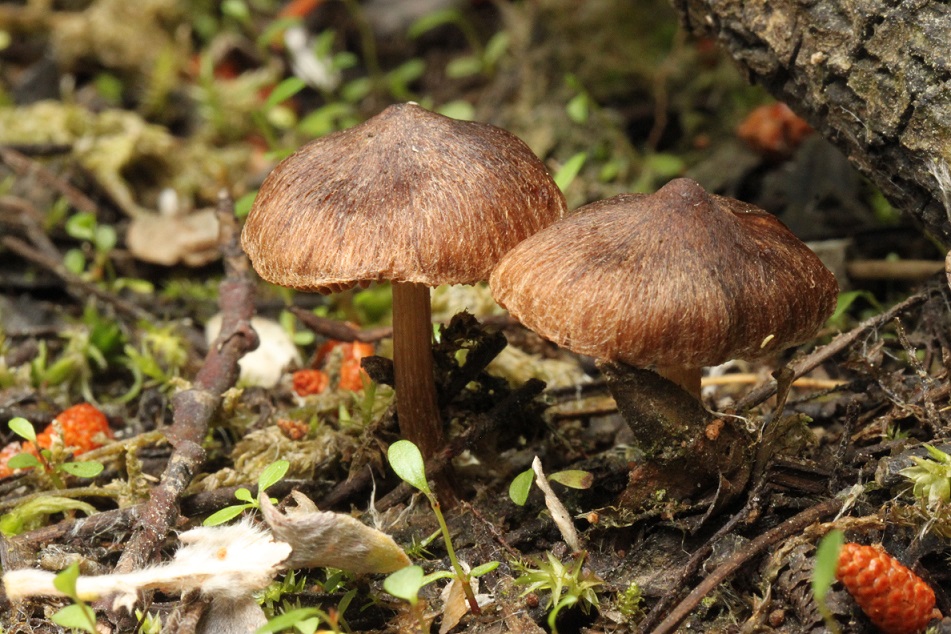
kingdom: Fungi
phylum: Basidiomycota
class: Agaricomycetes
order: Agaricales
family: Inocybaceae
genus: Inocybe
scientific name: Inocybe acuta
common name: papil-trævlhat
